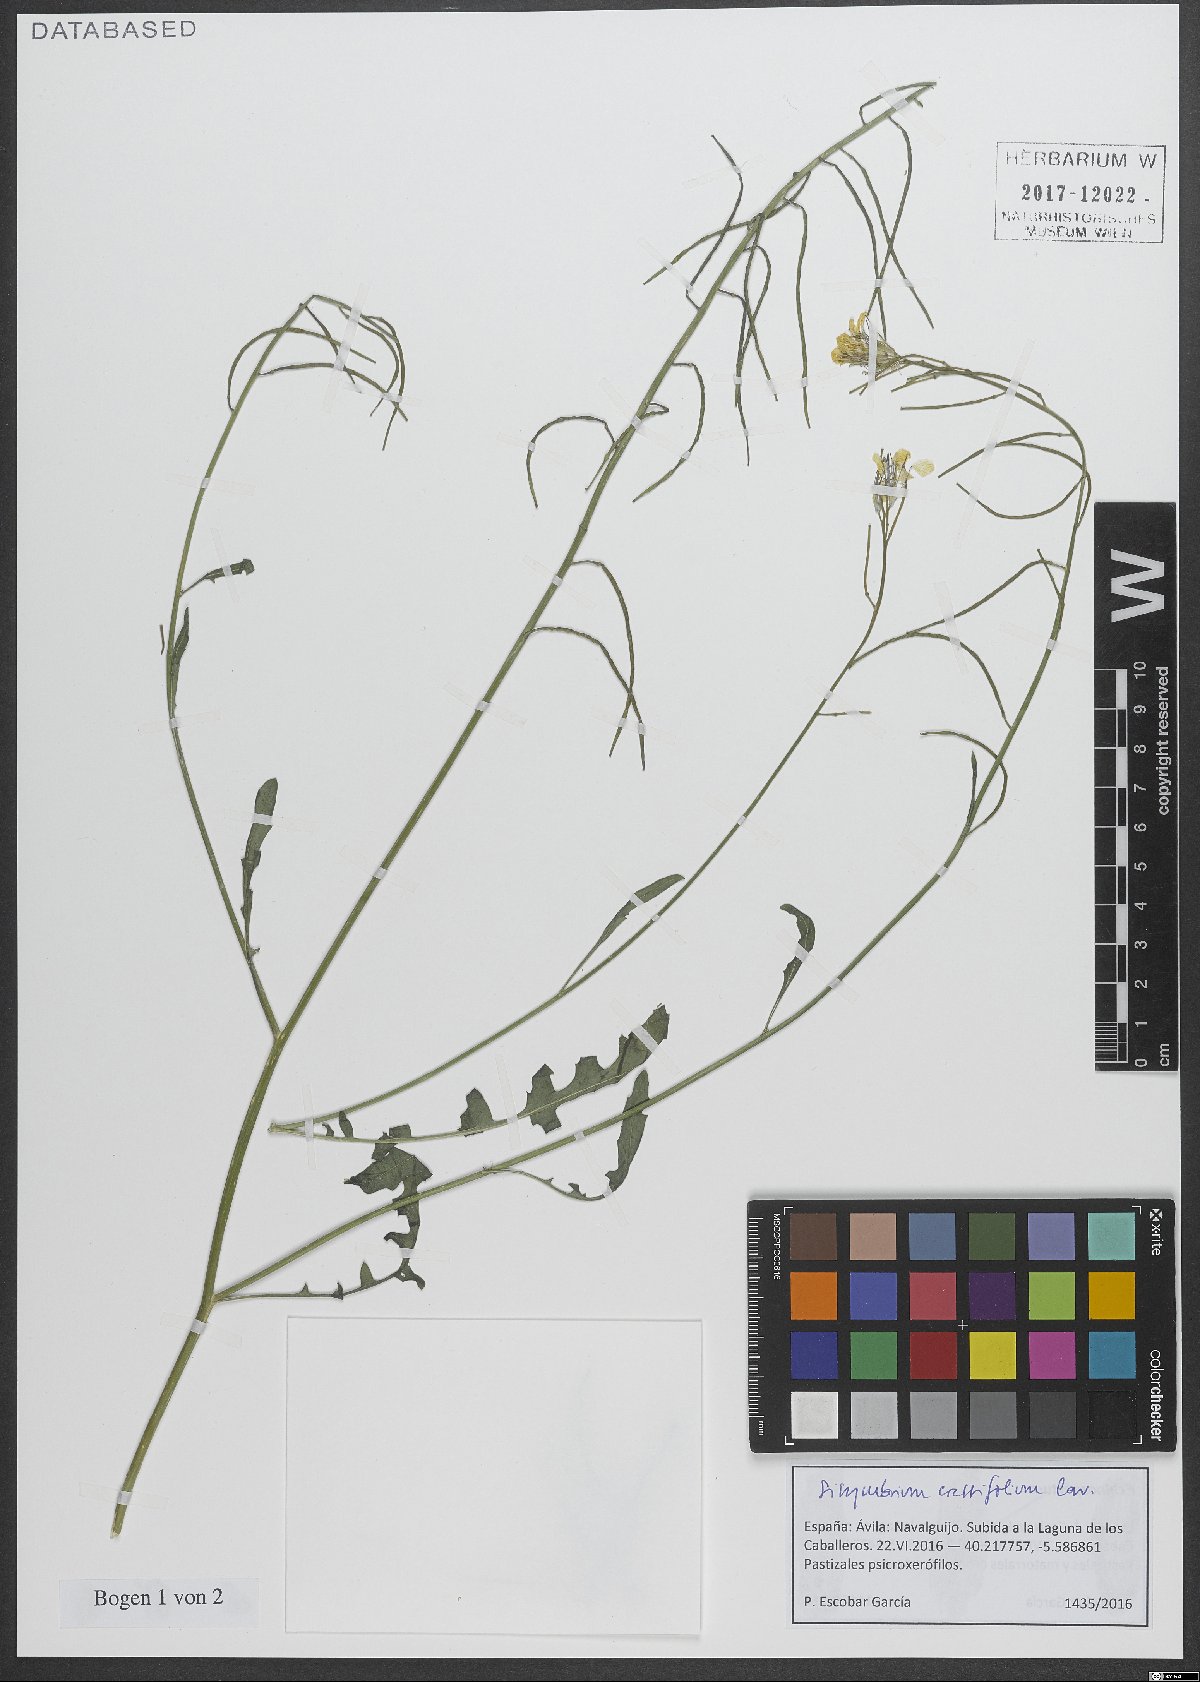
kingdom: Plantae
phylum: Tracheophyta
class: Magnoliopsida
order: Brassicales
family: Brassicaceae
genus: Sisymbrium
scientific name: Sisymbrium crassifolium
